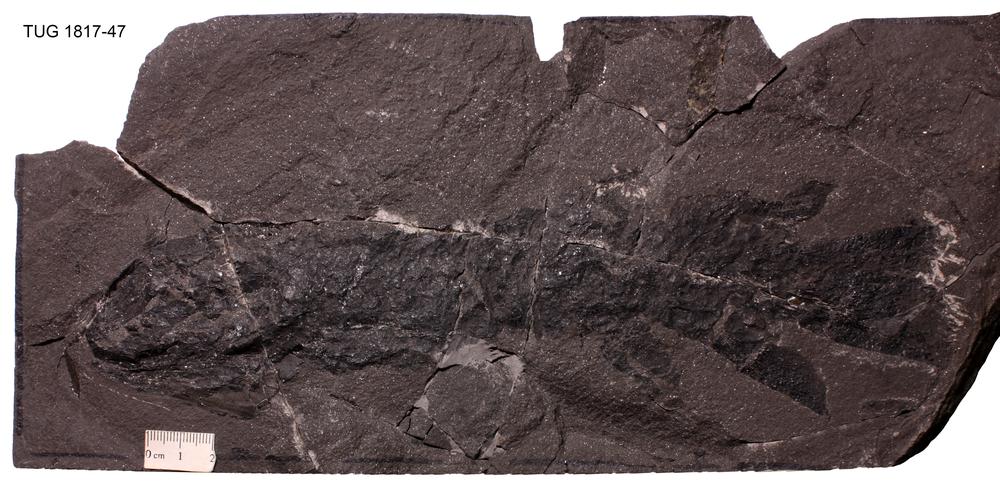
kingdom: Animalia
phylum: Chordata
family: Eusthenopteridae
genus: Tristichopterus
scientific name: Tristichopterus alatus
